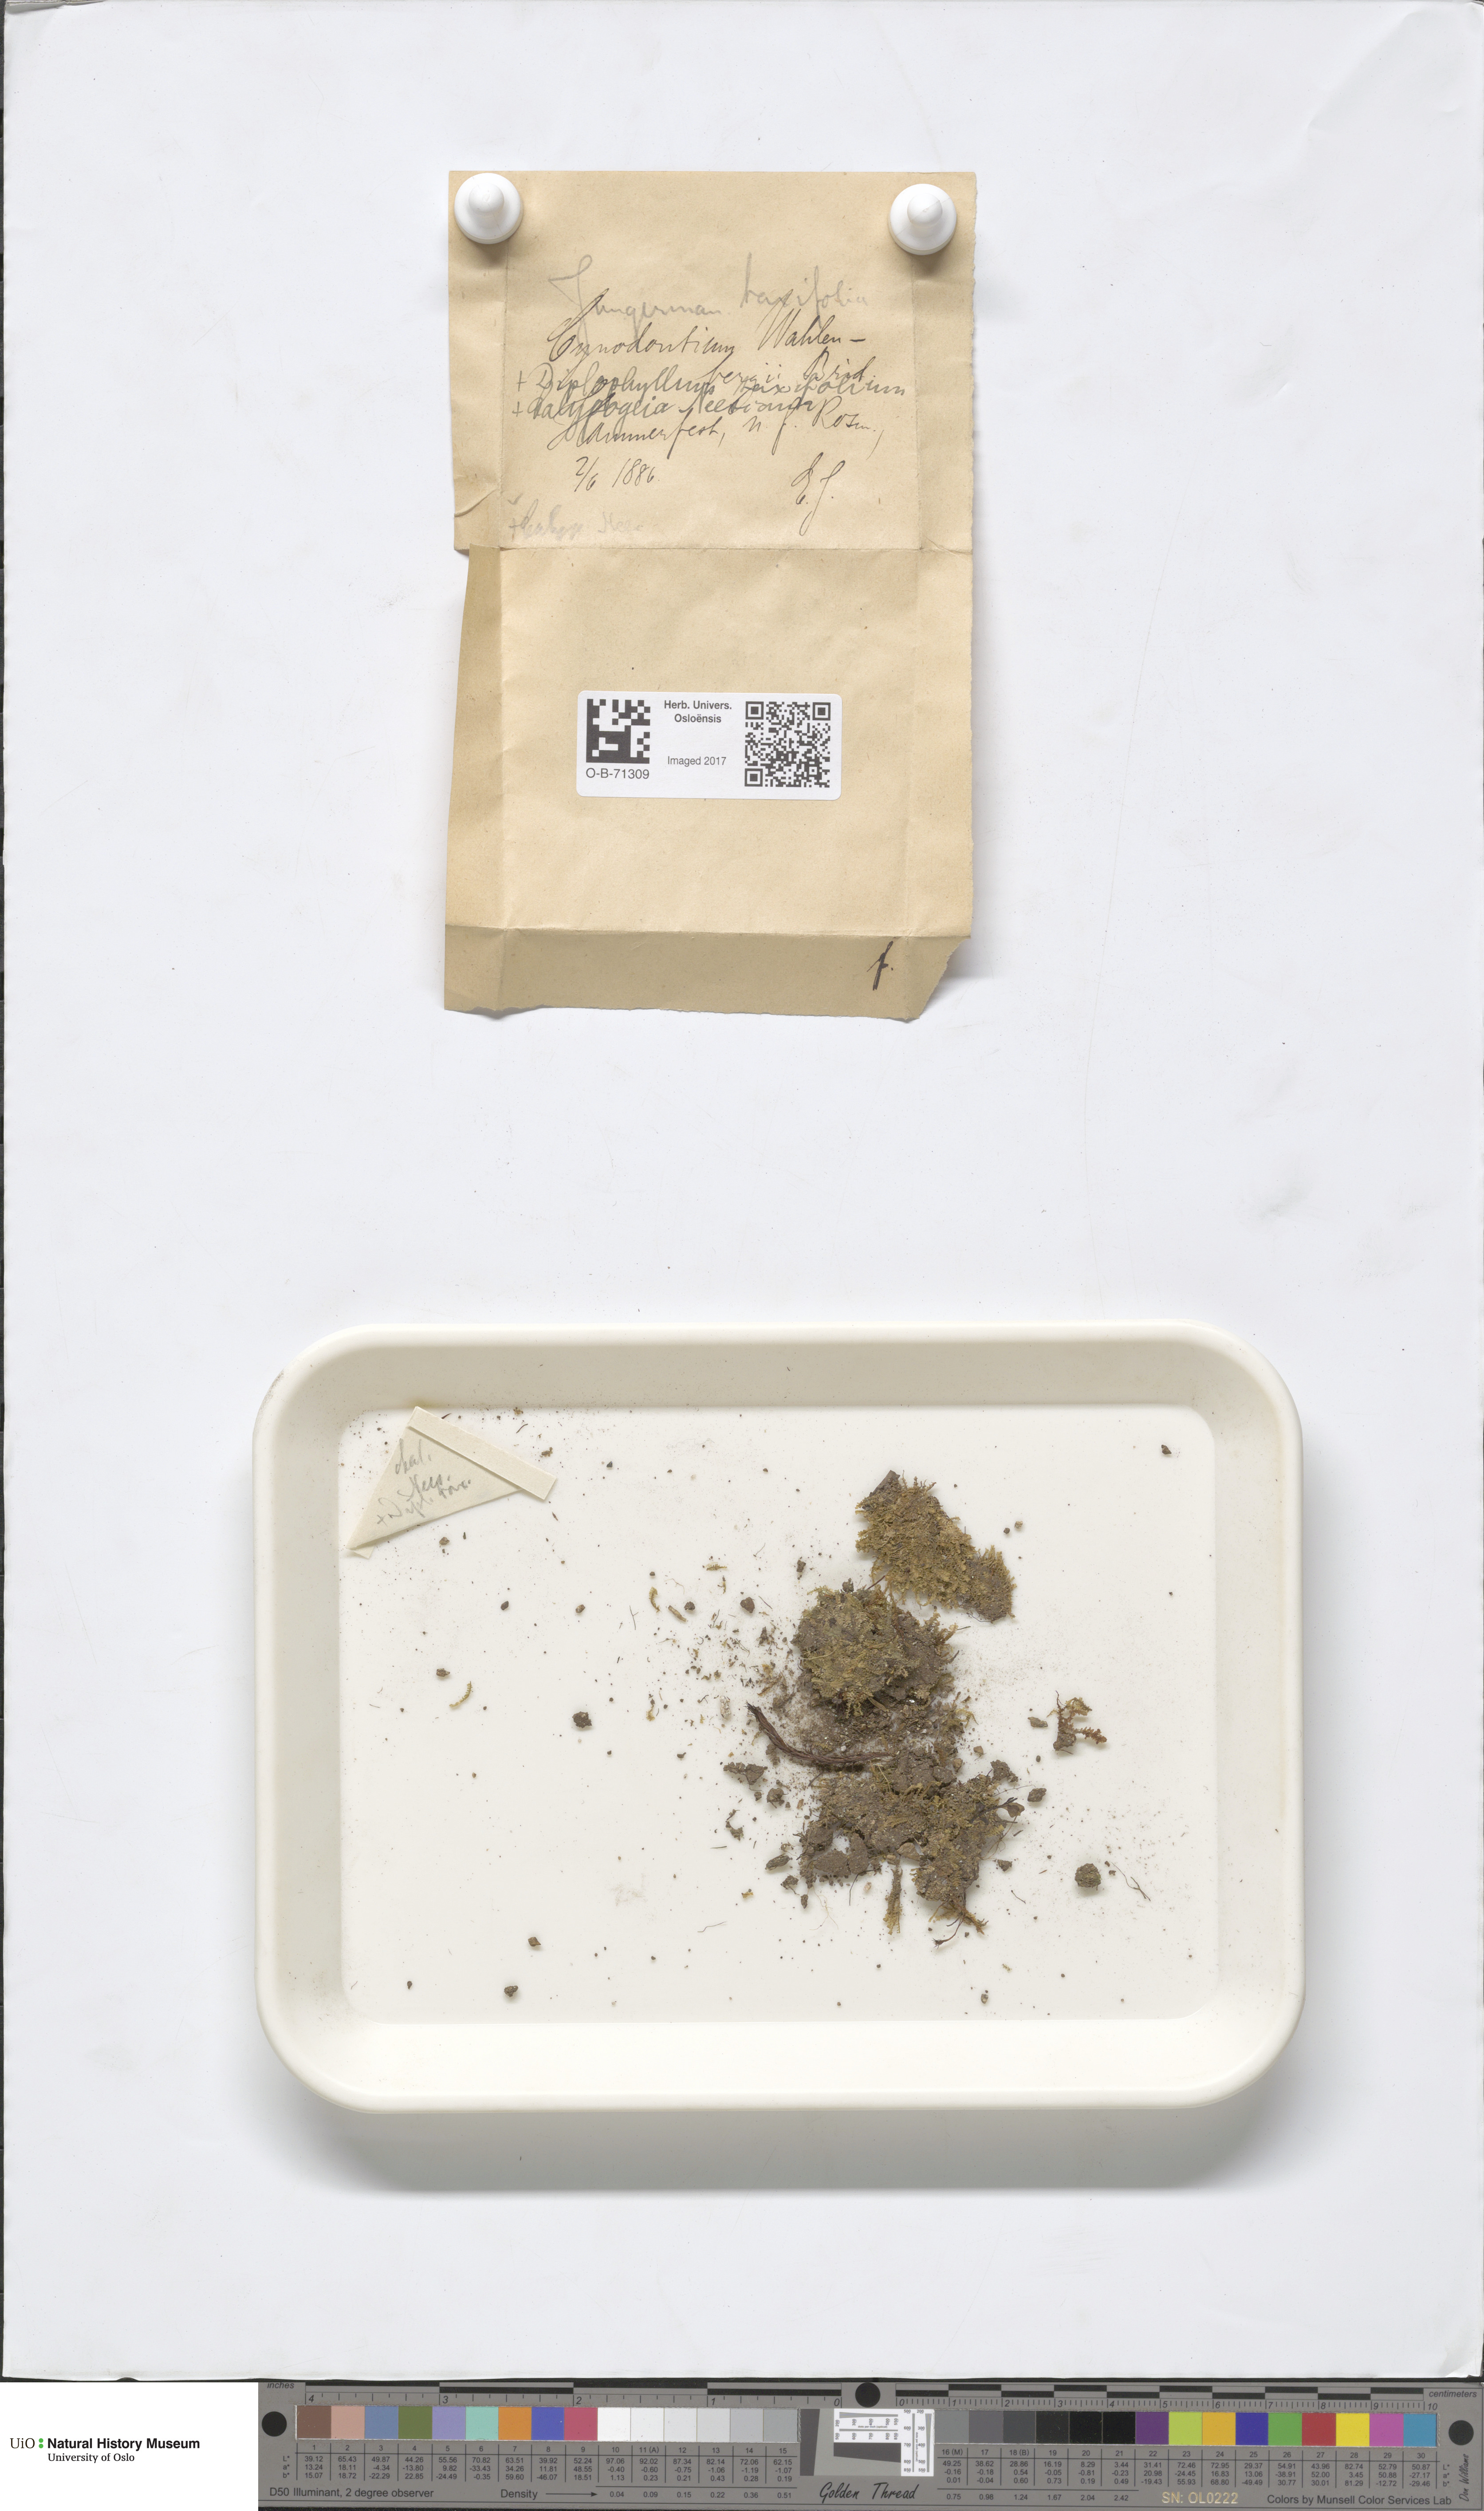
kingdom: Plantae
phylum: Marchantiophyta
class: Jungermanniopsida
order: Jungermanniales
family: Calypogeiaceae
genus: Calypogeia
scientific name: Calypogeia neesiana
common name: Nees  pouchwort
